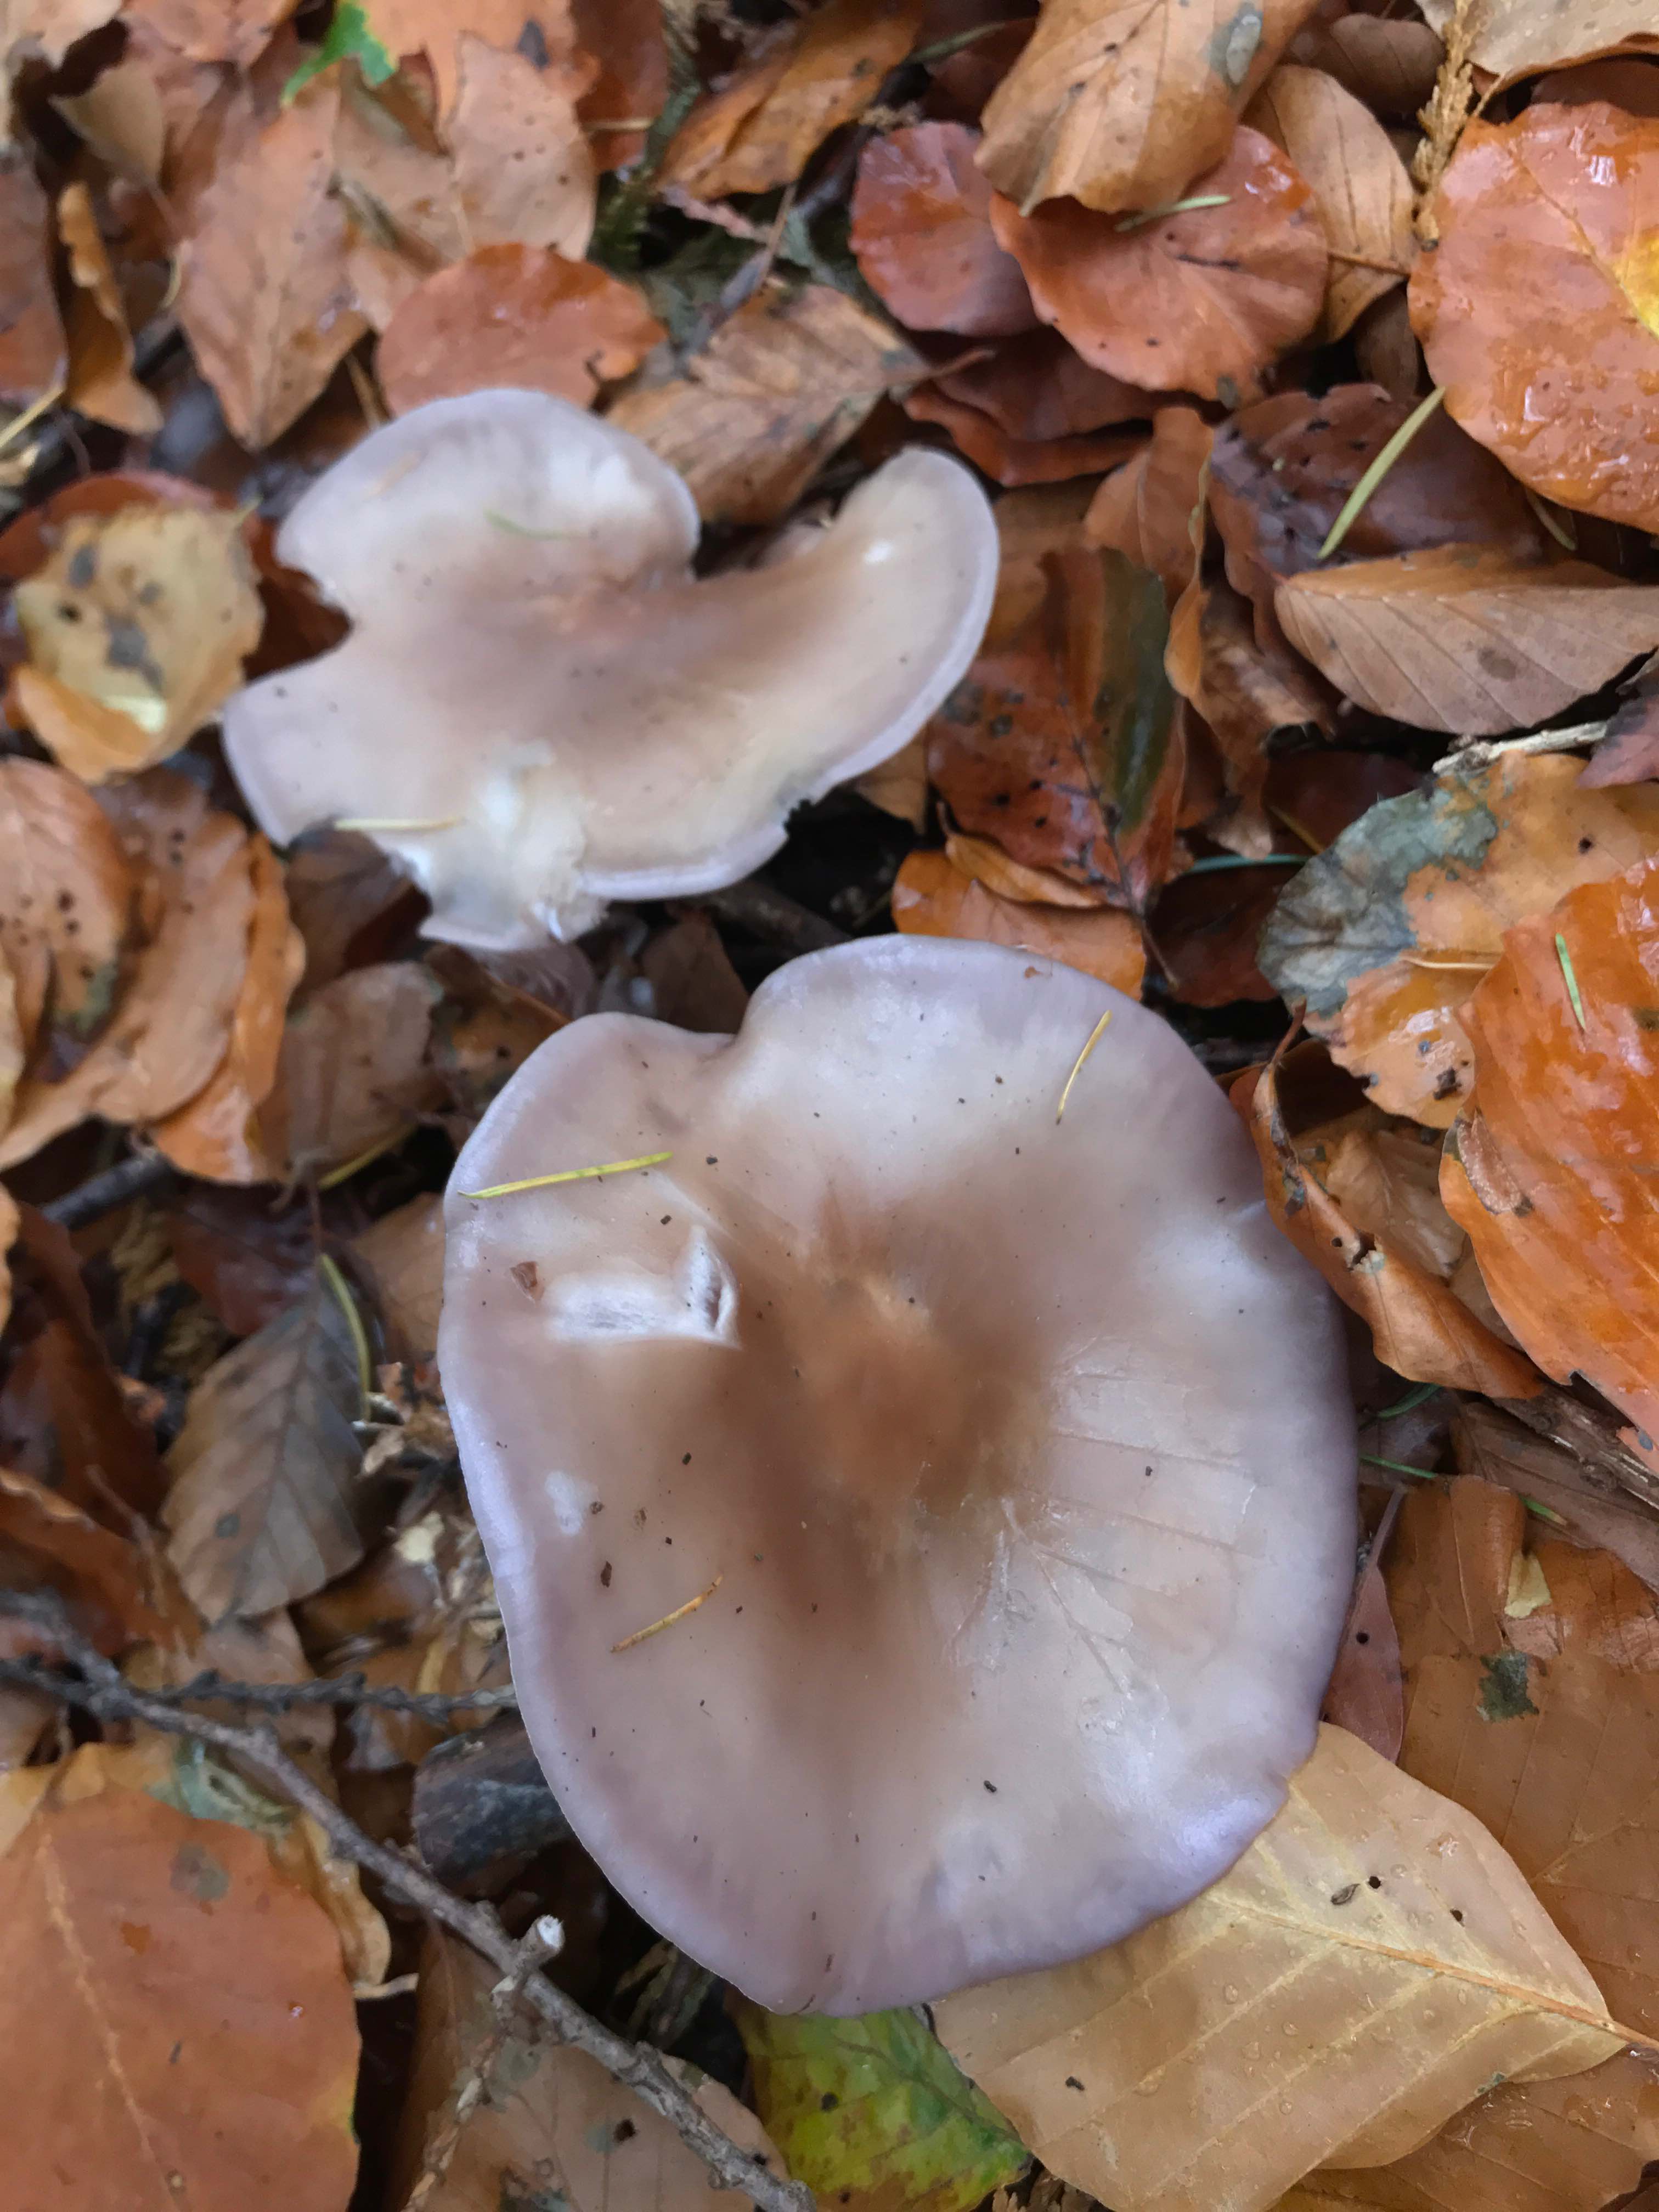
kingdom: Fungi
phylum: Basidiomycota
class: Agaricomycetes
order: Agaricales
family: Tricholomataceae
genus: Lepista
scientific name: Lepista nuda
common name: violet hekseringshat
